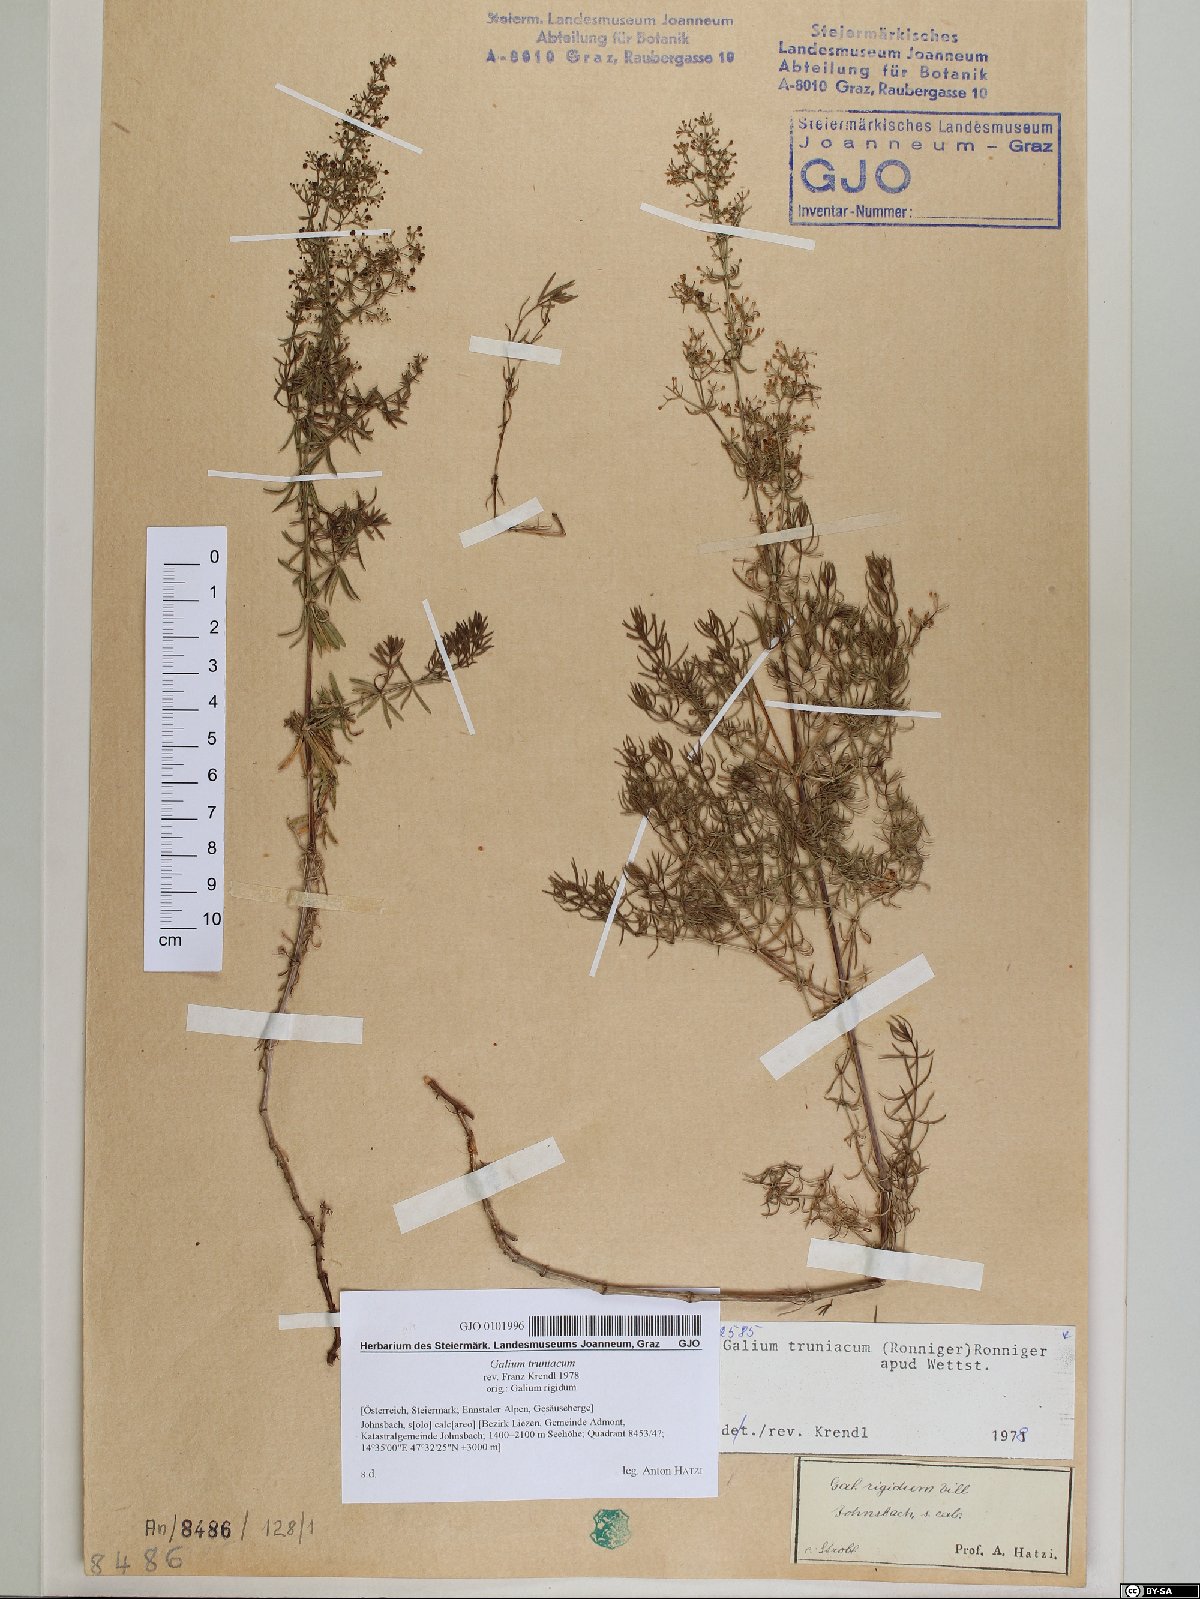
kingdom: Plantae
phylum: Tracheophyta
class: Magnoliopsida
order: Gentianales
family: Rubiaceae
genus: Galium
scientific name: Galium truniacum
